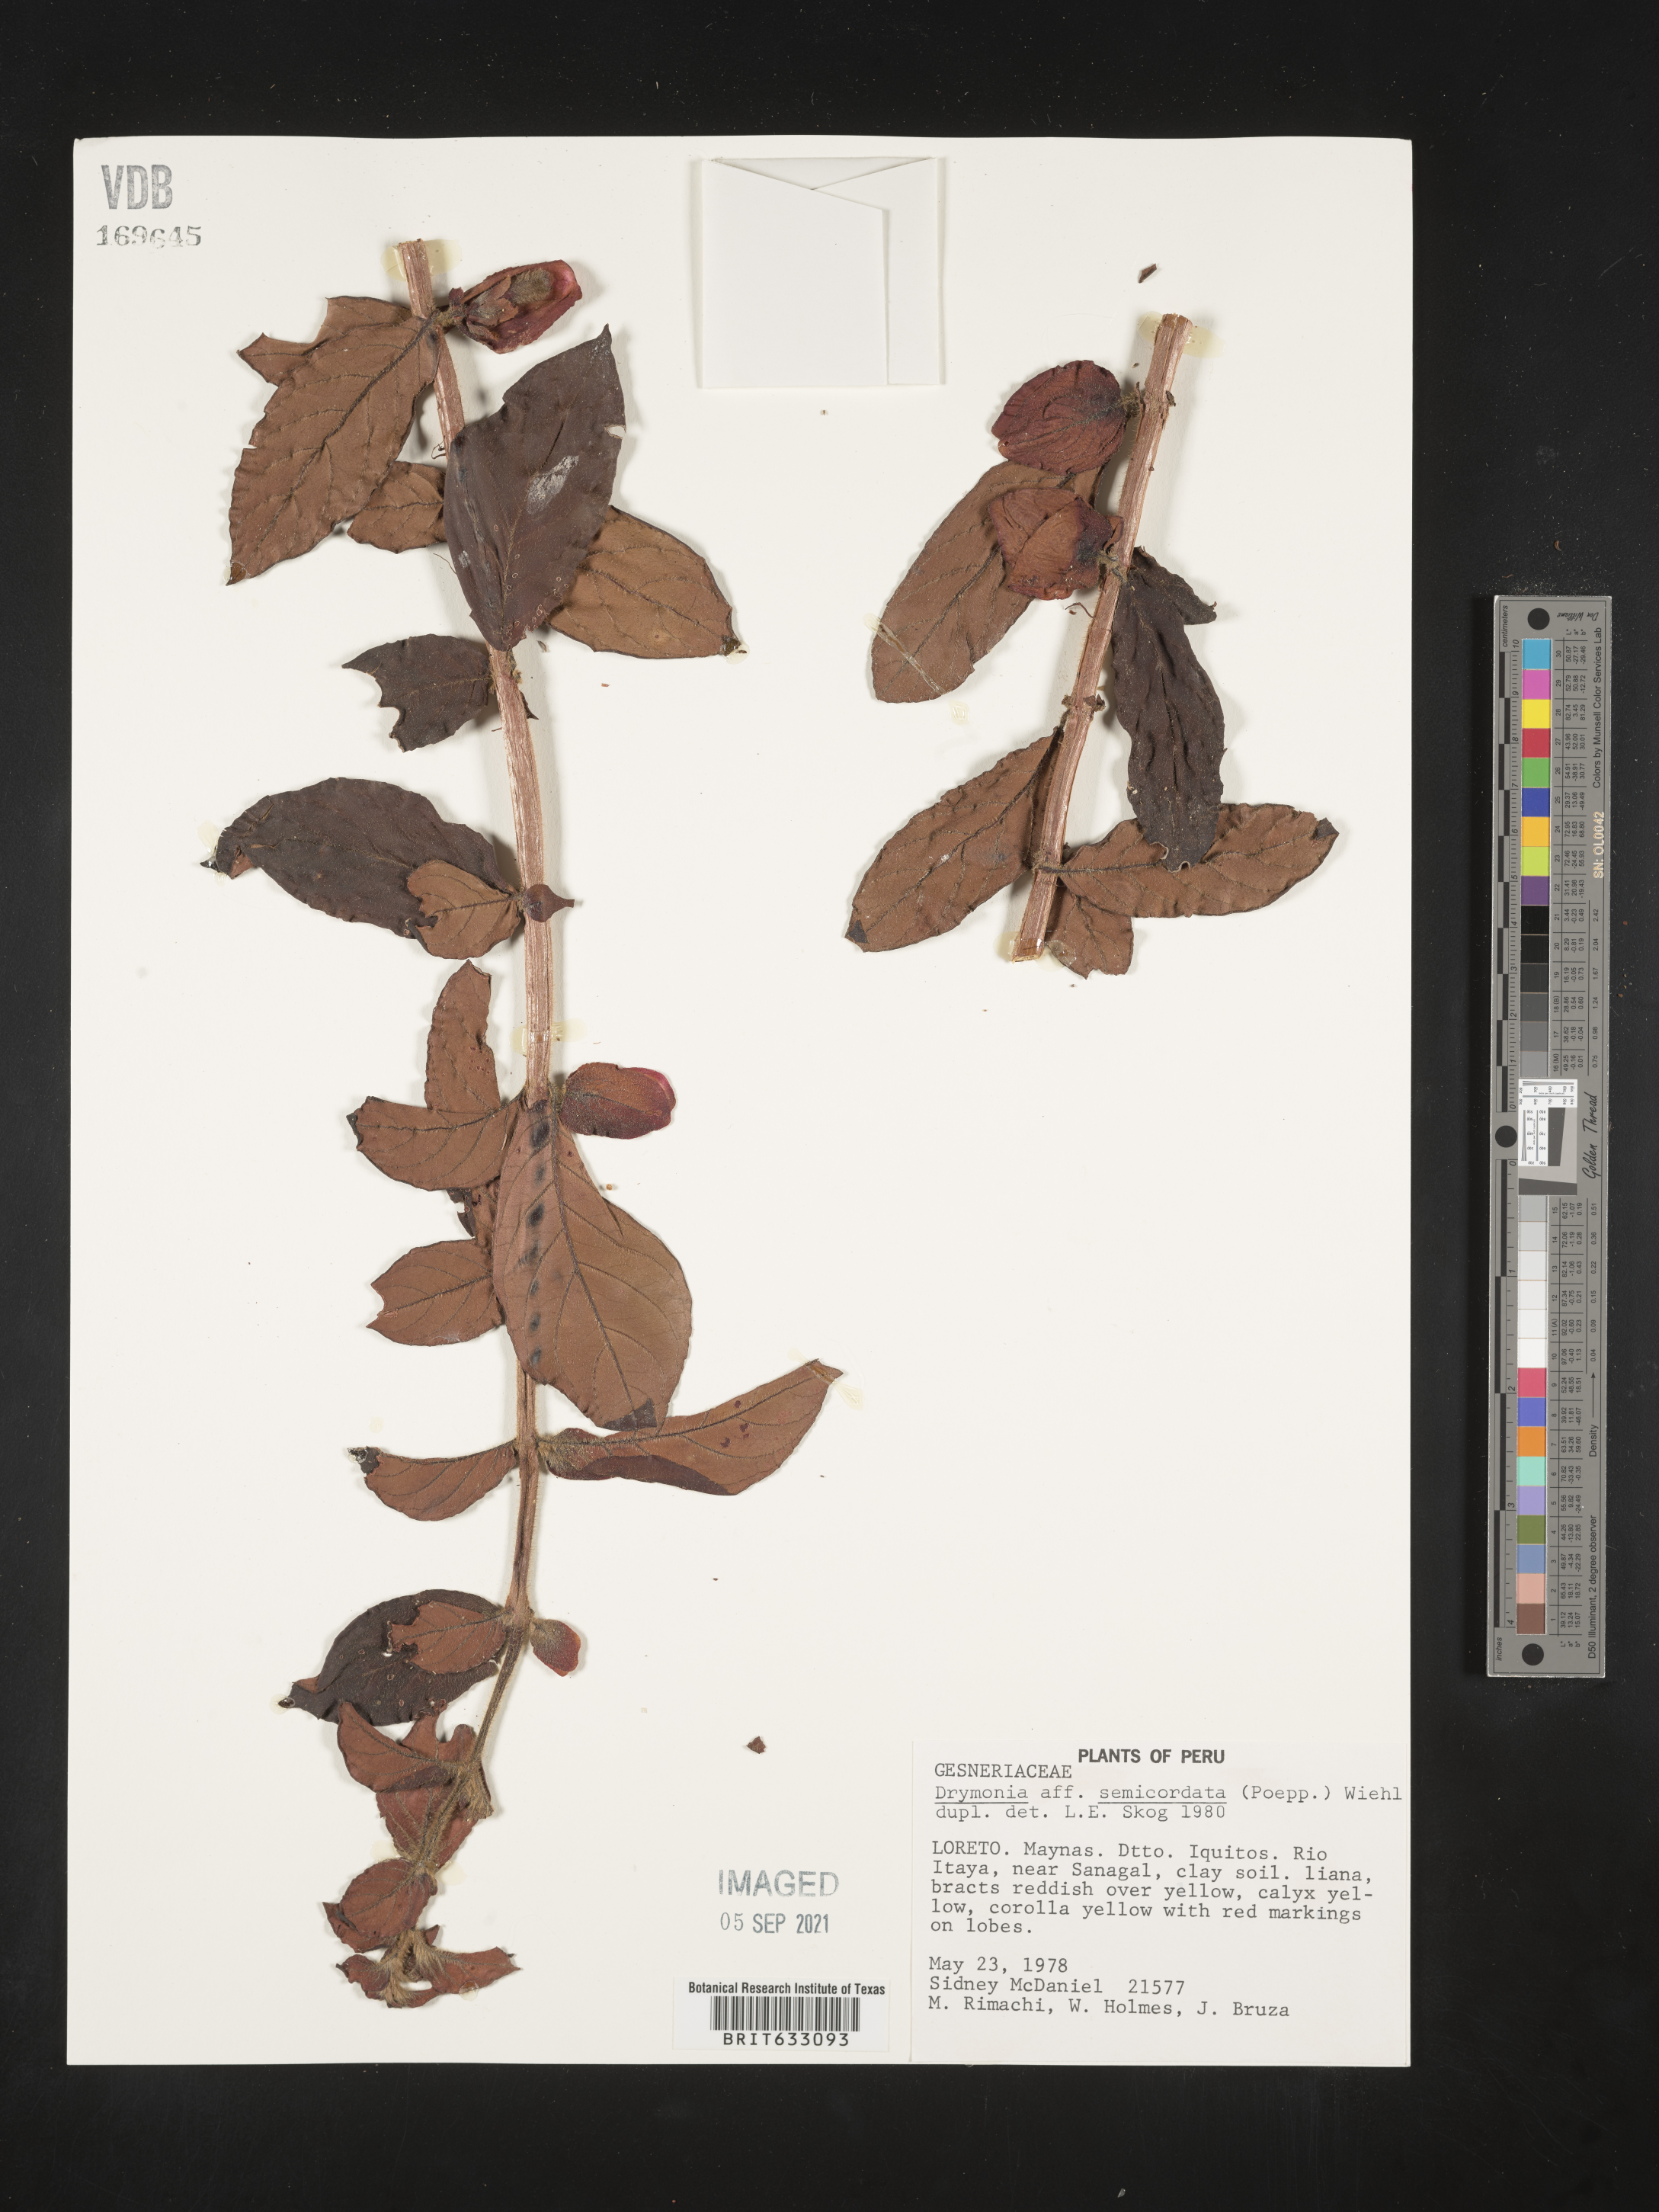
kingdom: Plantae
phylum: Tracheophyta
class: Magnoliopsida
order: Lamiales
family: Gesneriaceae
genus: Drymonia
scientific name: Drymonia
